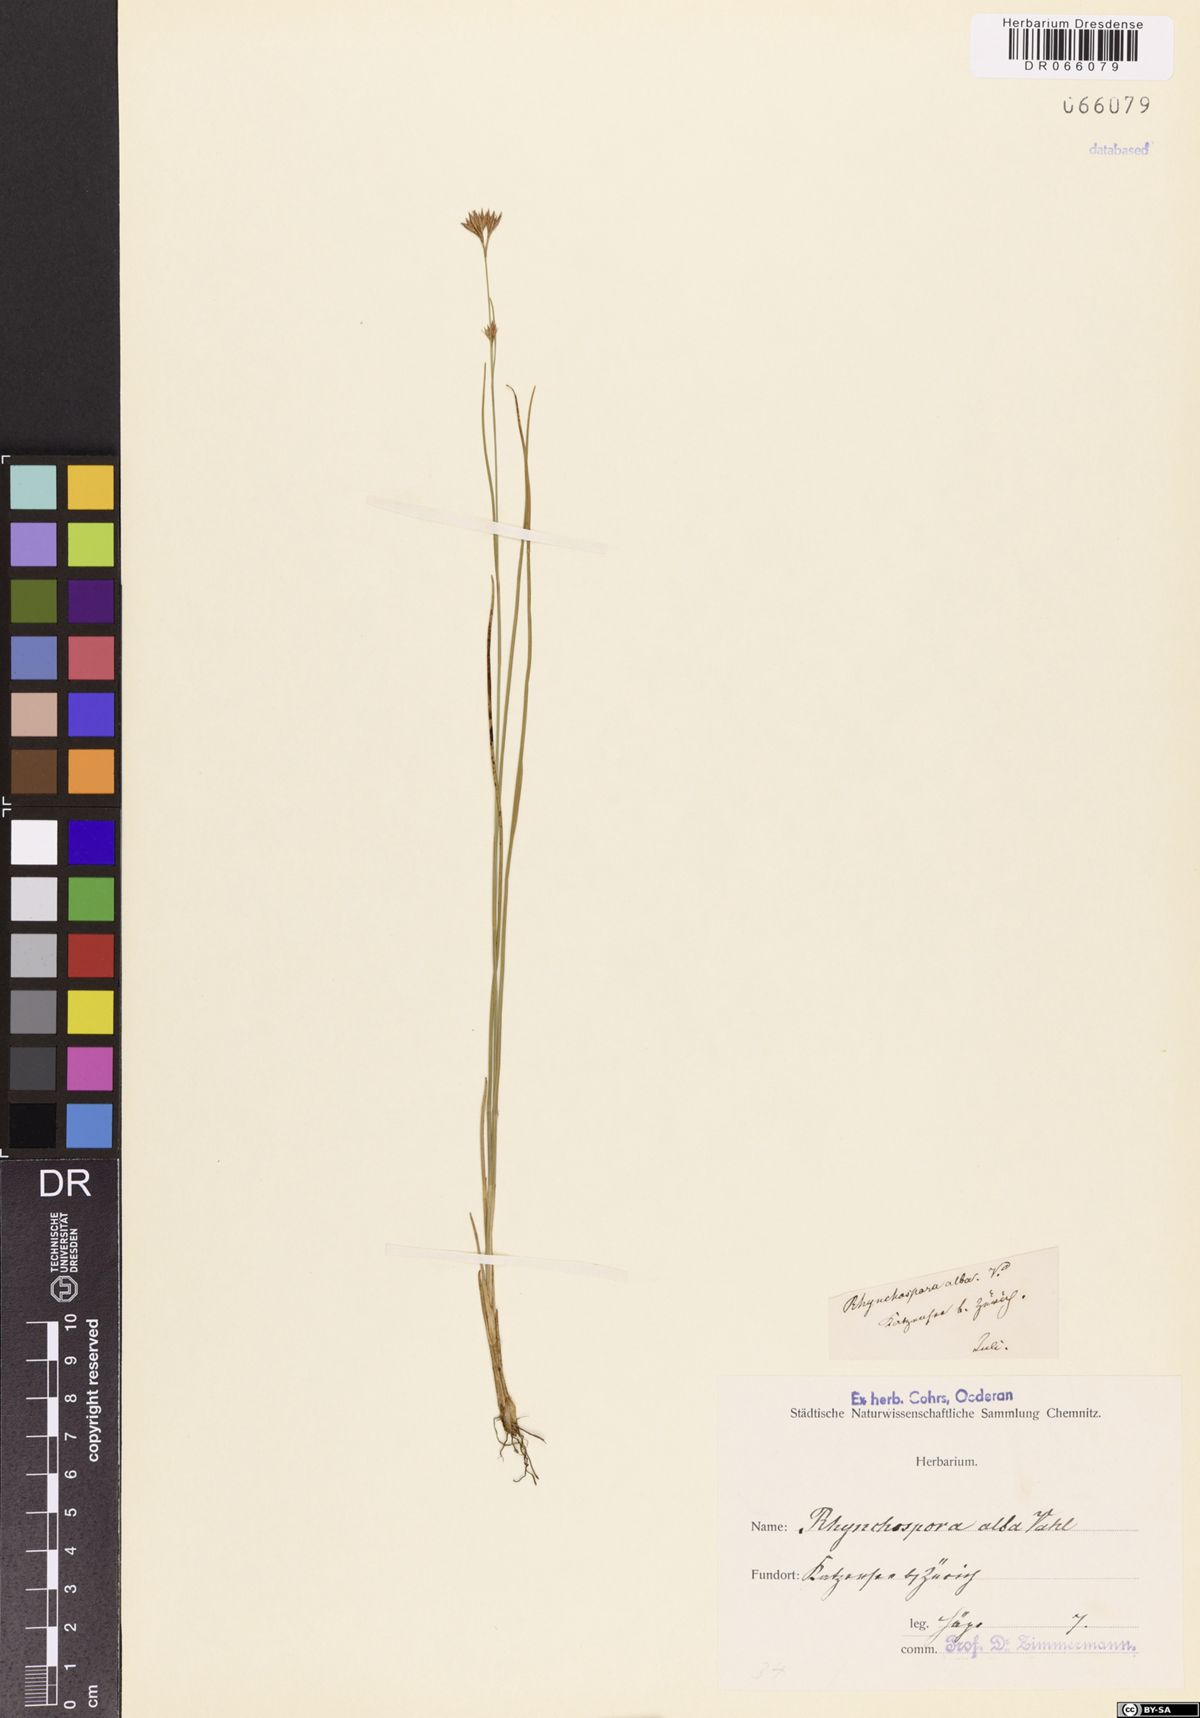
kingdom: Plantae
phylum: Tracheophyta
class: Liliopsida
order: Poales
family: Cyperaceae
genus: Rhynchospora
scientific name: Rhynchospora alba
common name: White beak-sedge
